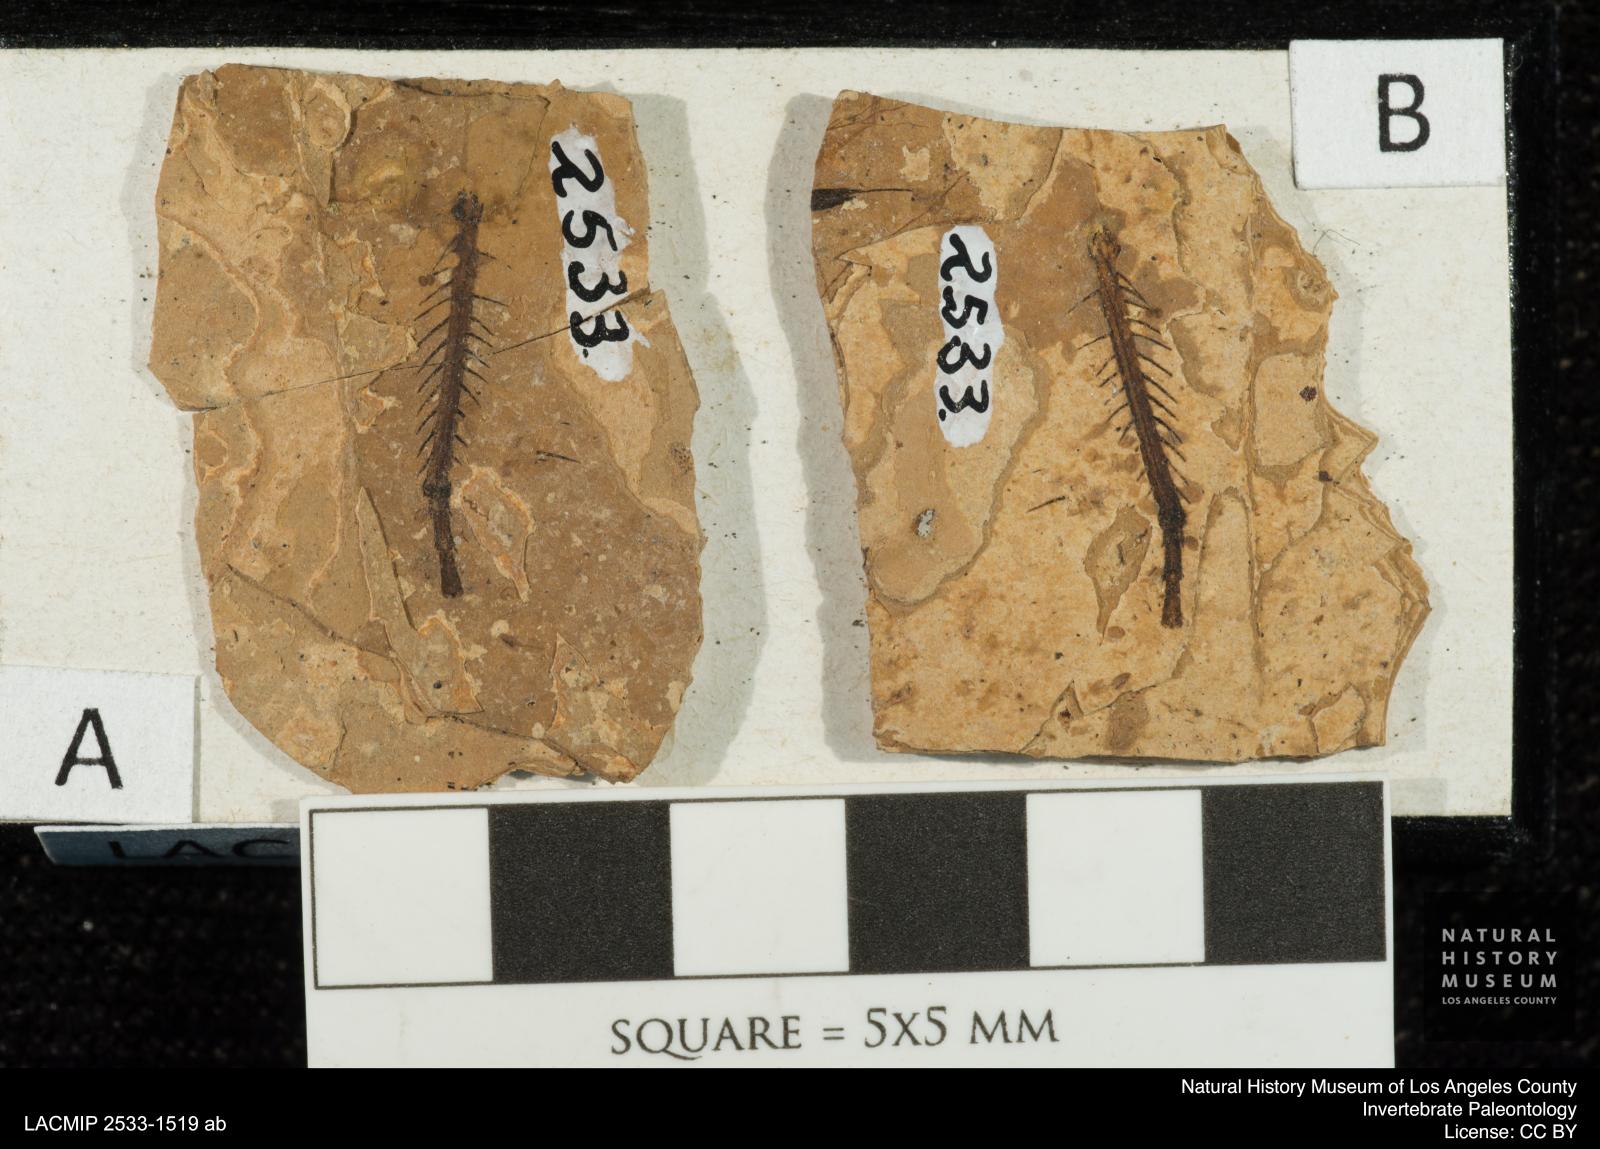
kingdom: Animalia
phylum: Arthropoda
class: Insecta
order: Odonata
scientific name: Odonata
